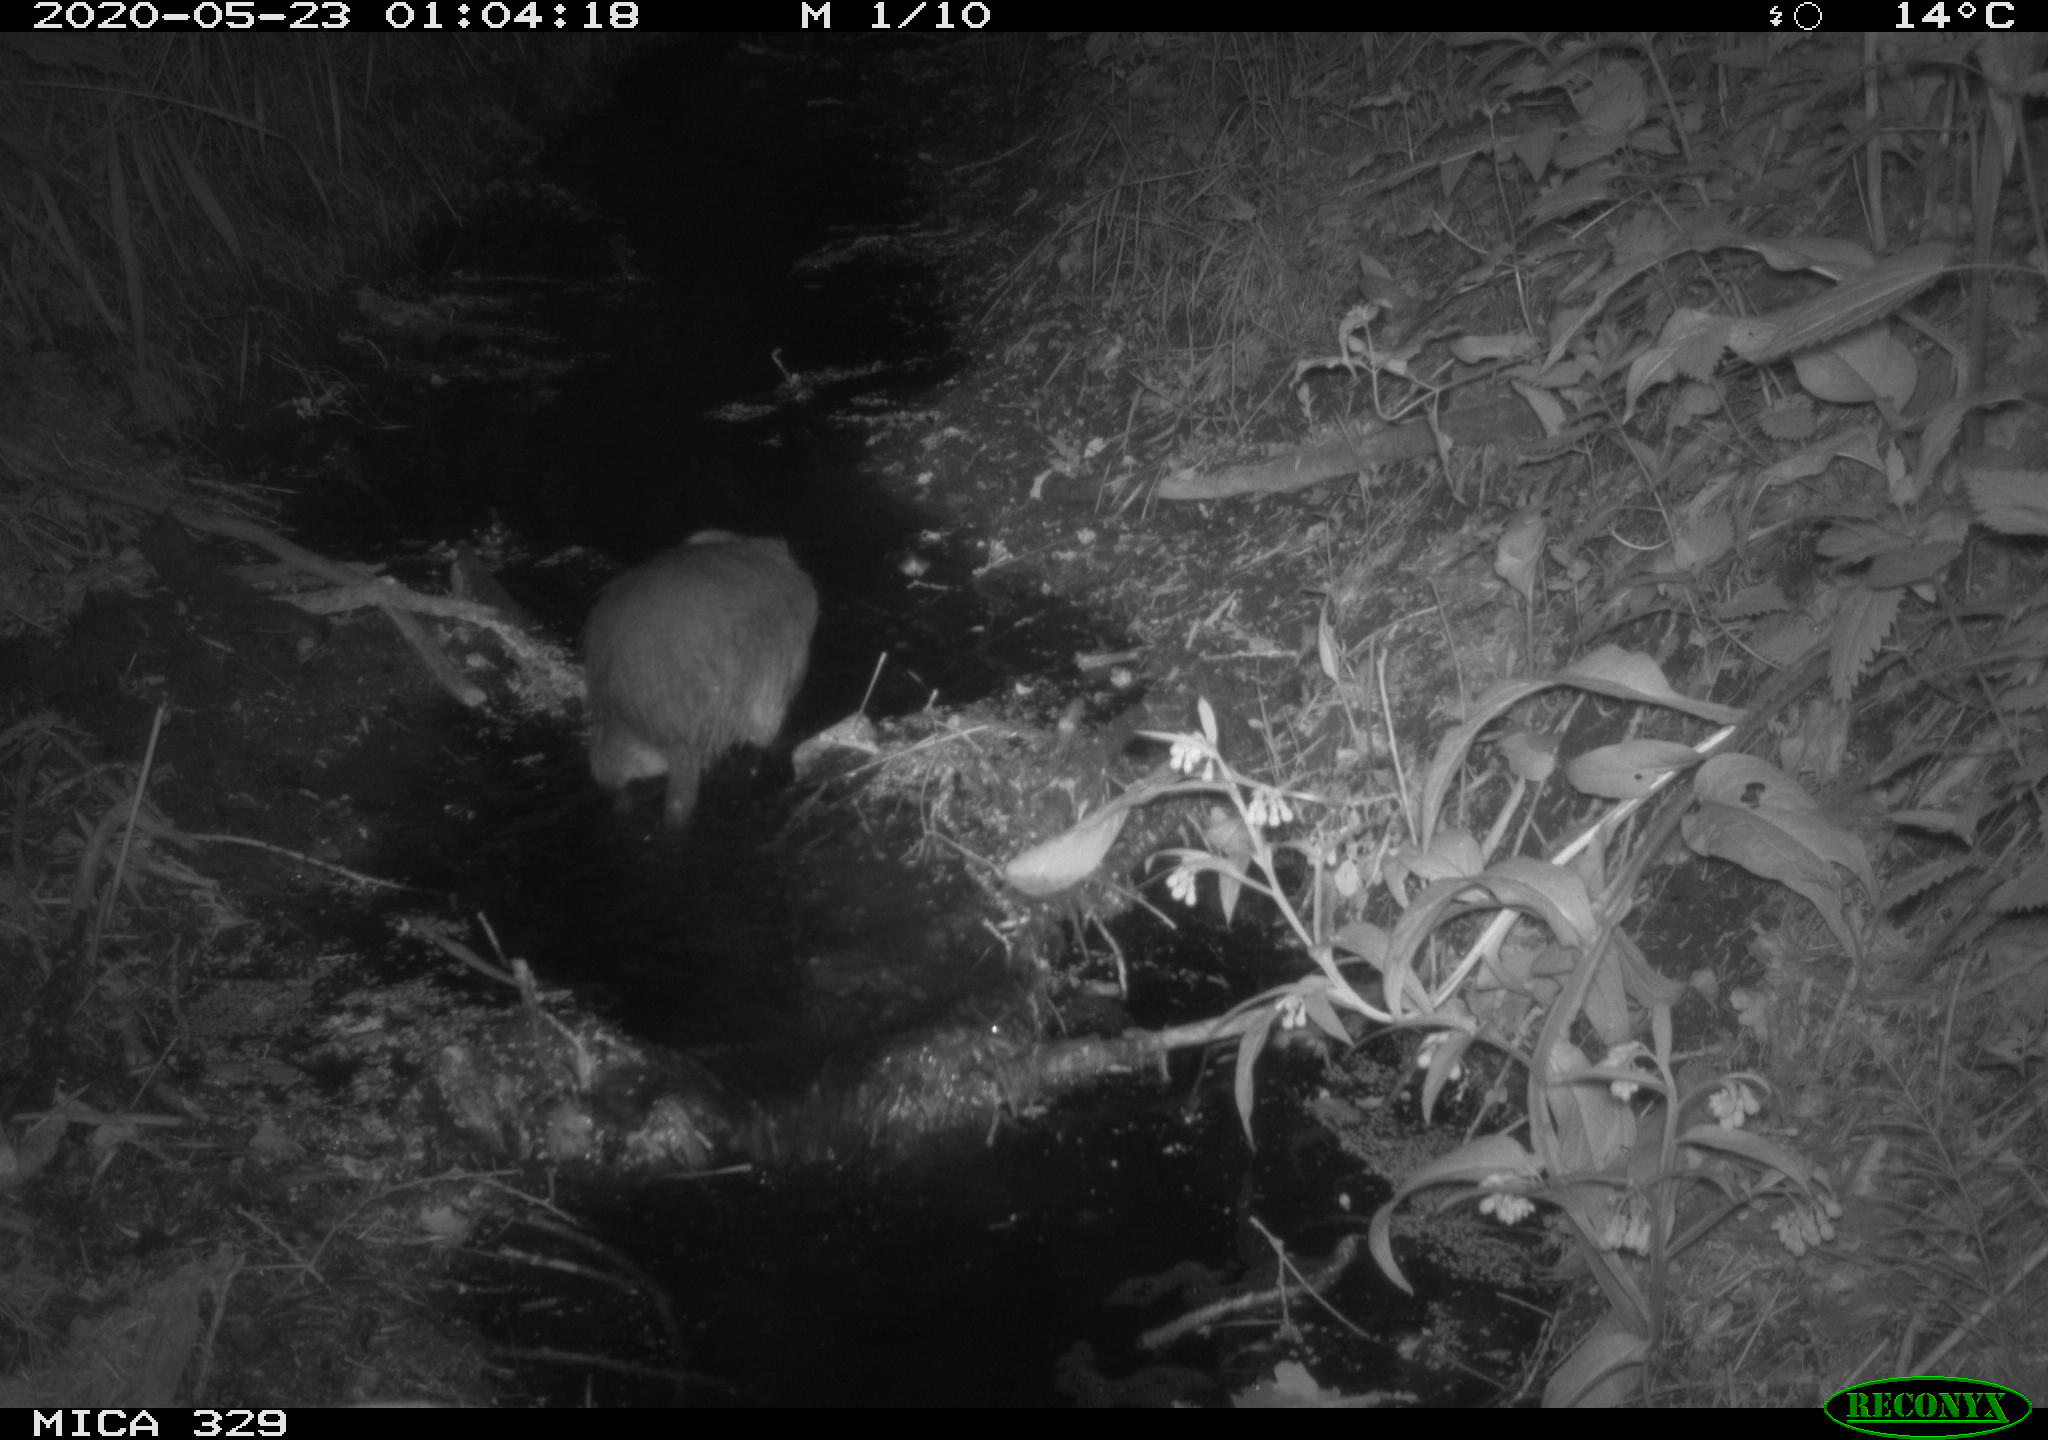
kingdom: Animalia
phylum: Chordata
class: Mammalia
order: Rodentia
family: Myocastoridae
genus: Myocastor
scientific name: Myocastor coypus
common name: Coypu
